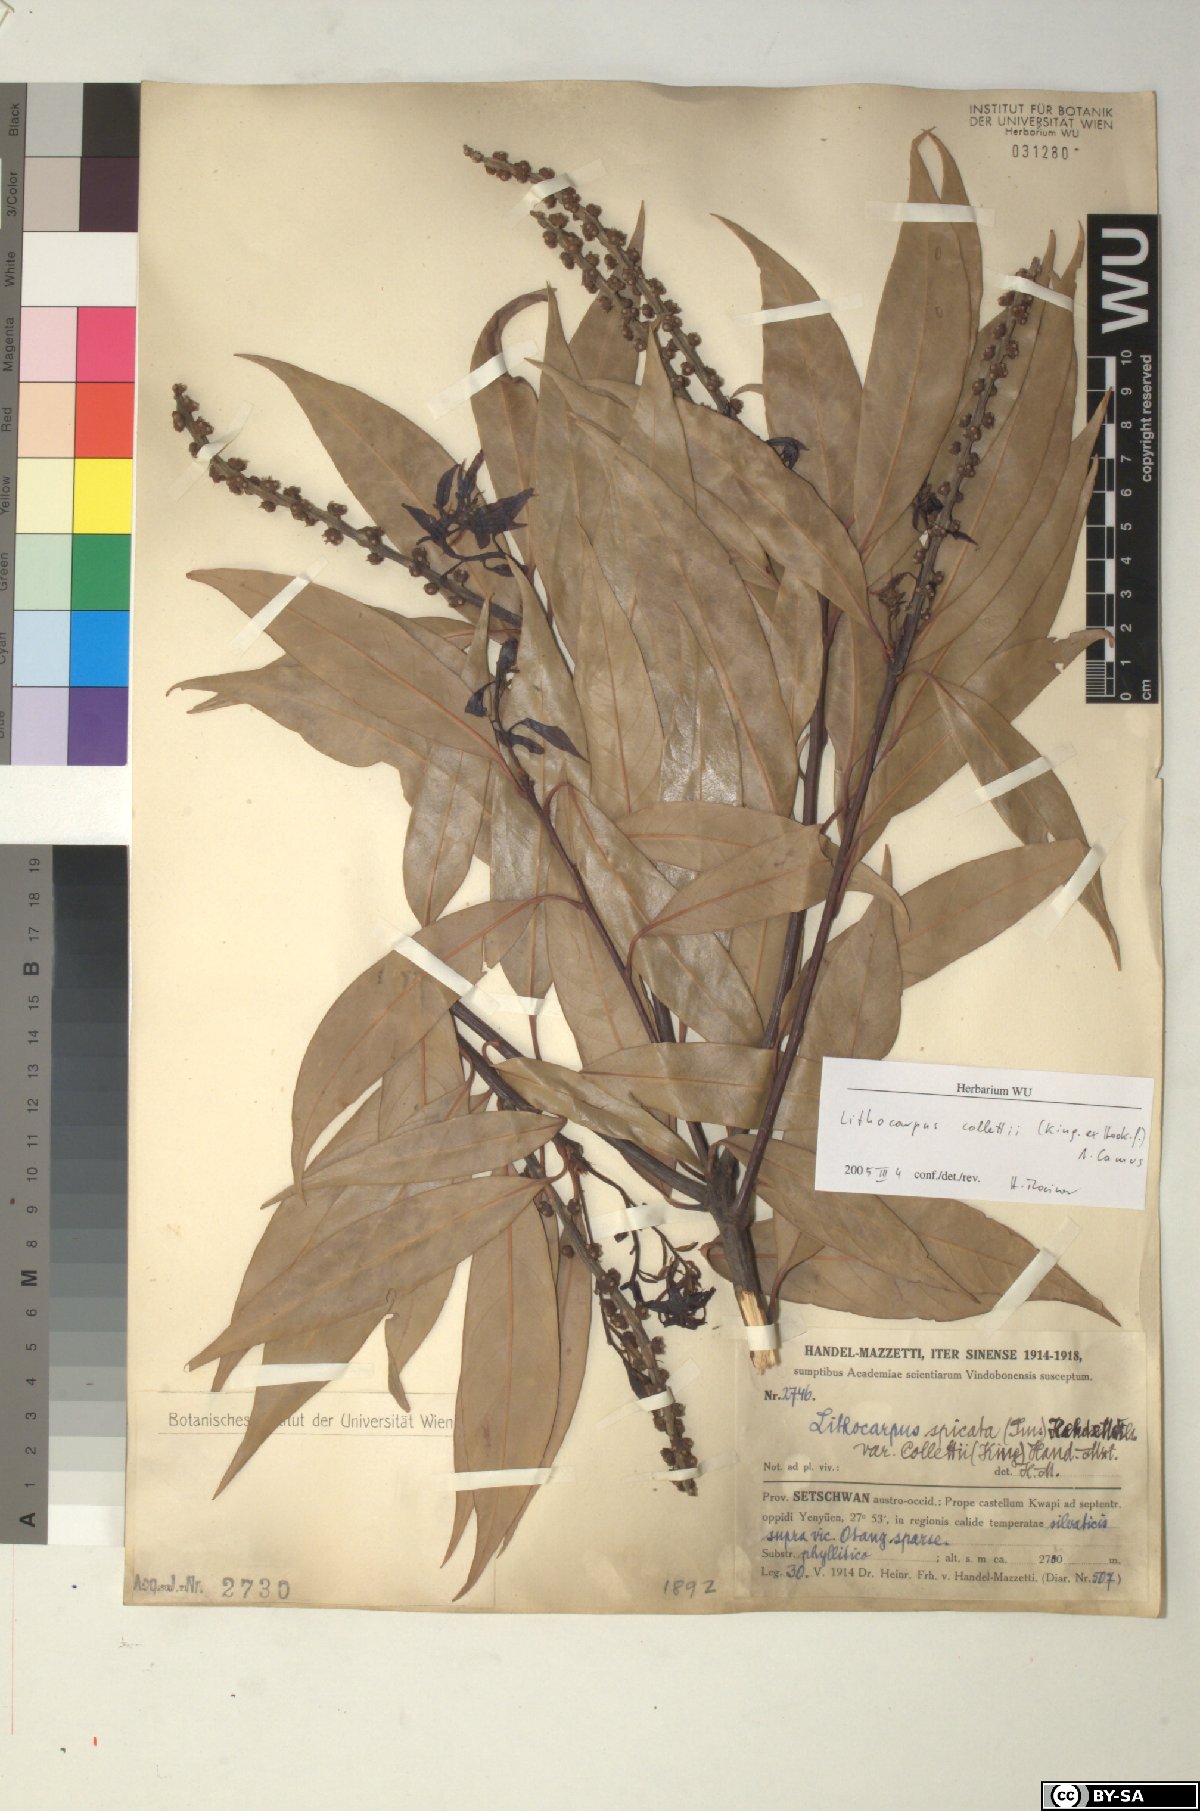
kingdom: Plantae
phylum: Tracheophyta
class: Magnoliopsida
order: Fagales
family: Fagaceae
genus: Lithocarpus
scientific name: Lithocarpus elegans
